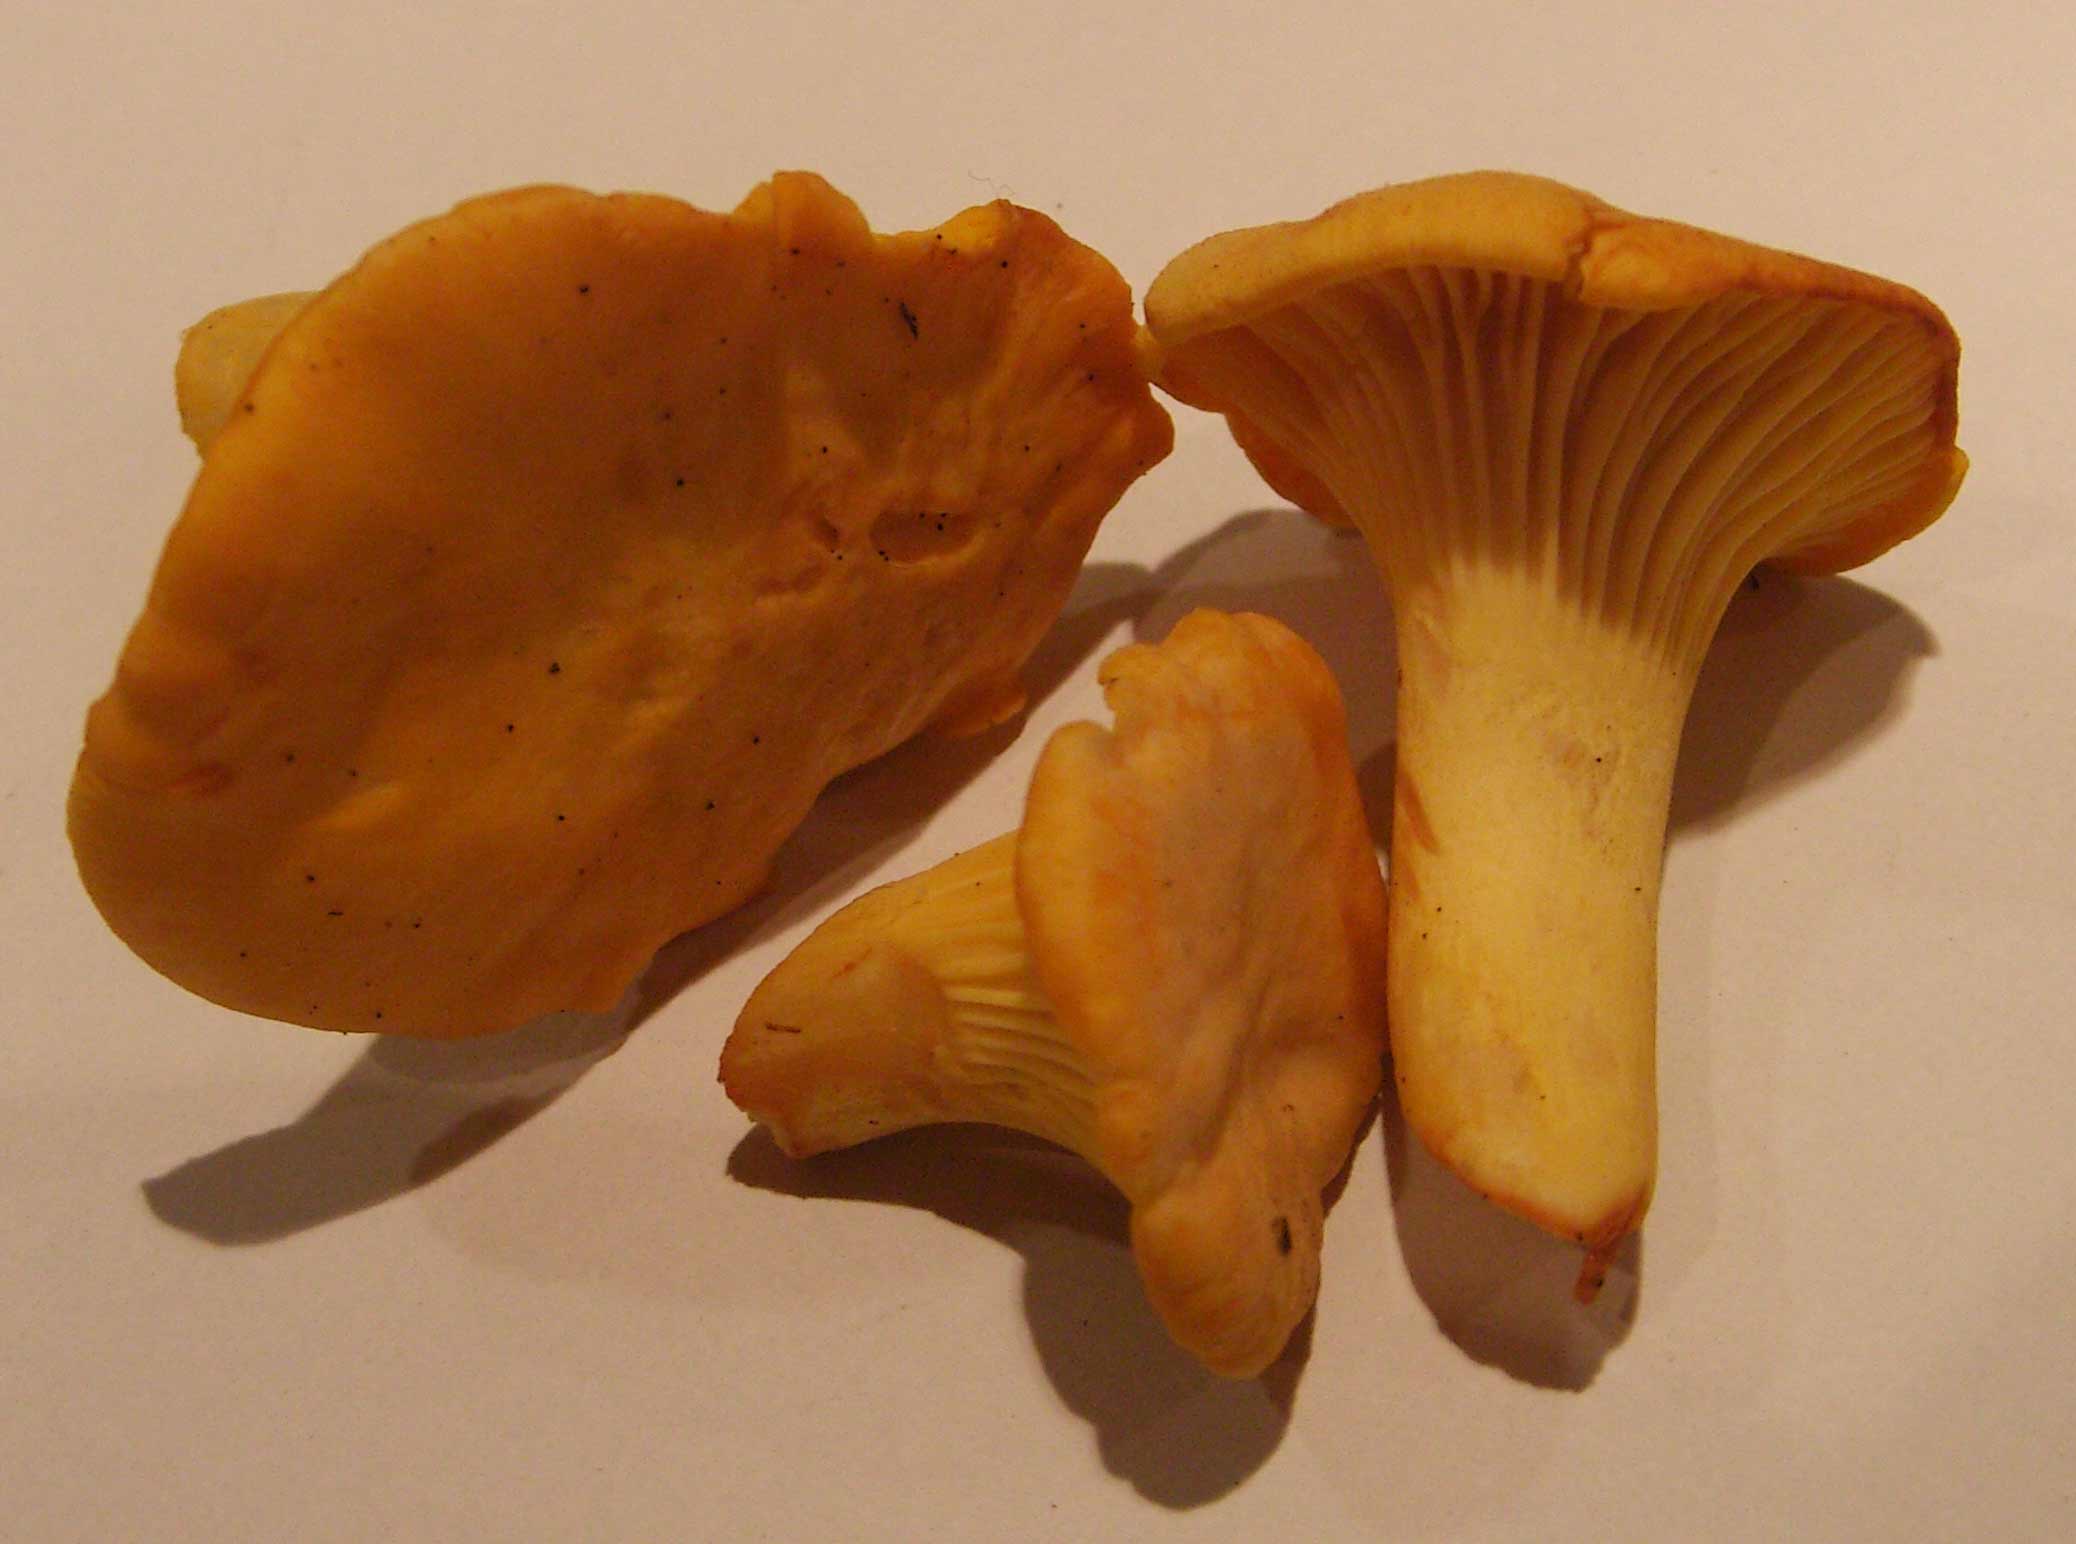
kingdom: Fungi
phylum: Basidiomycota
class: Agaricomycetes
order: Cantharellales
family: Hydnaceae
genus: Cantharellus
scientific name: Cantharellus cibarius
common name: almindelig kantarel
